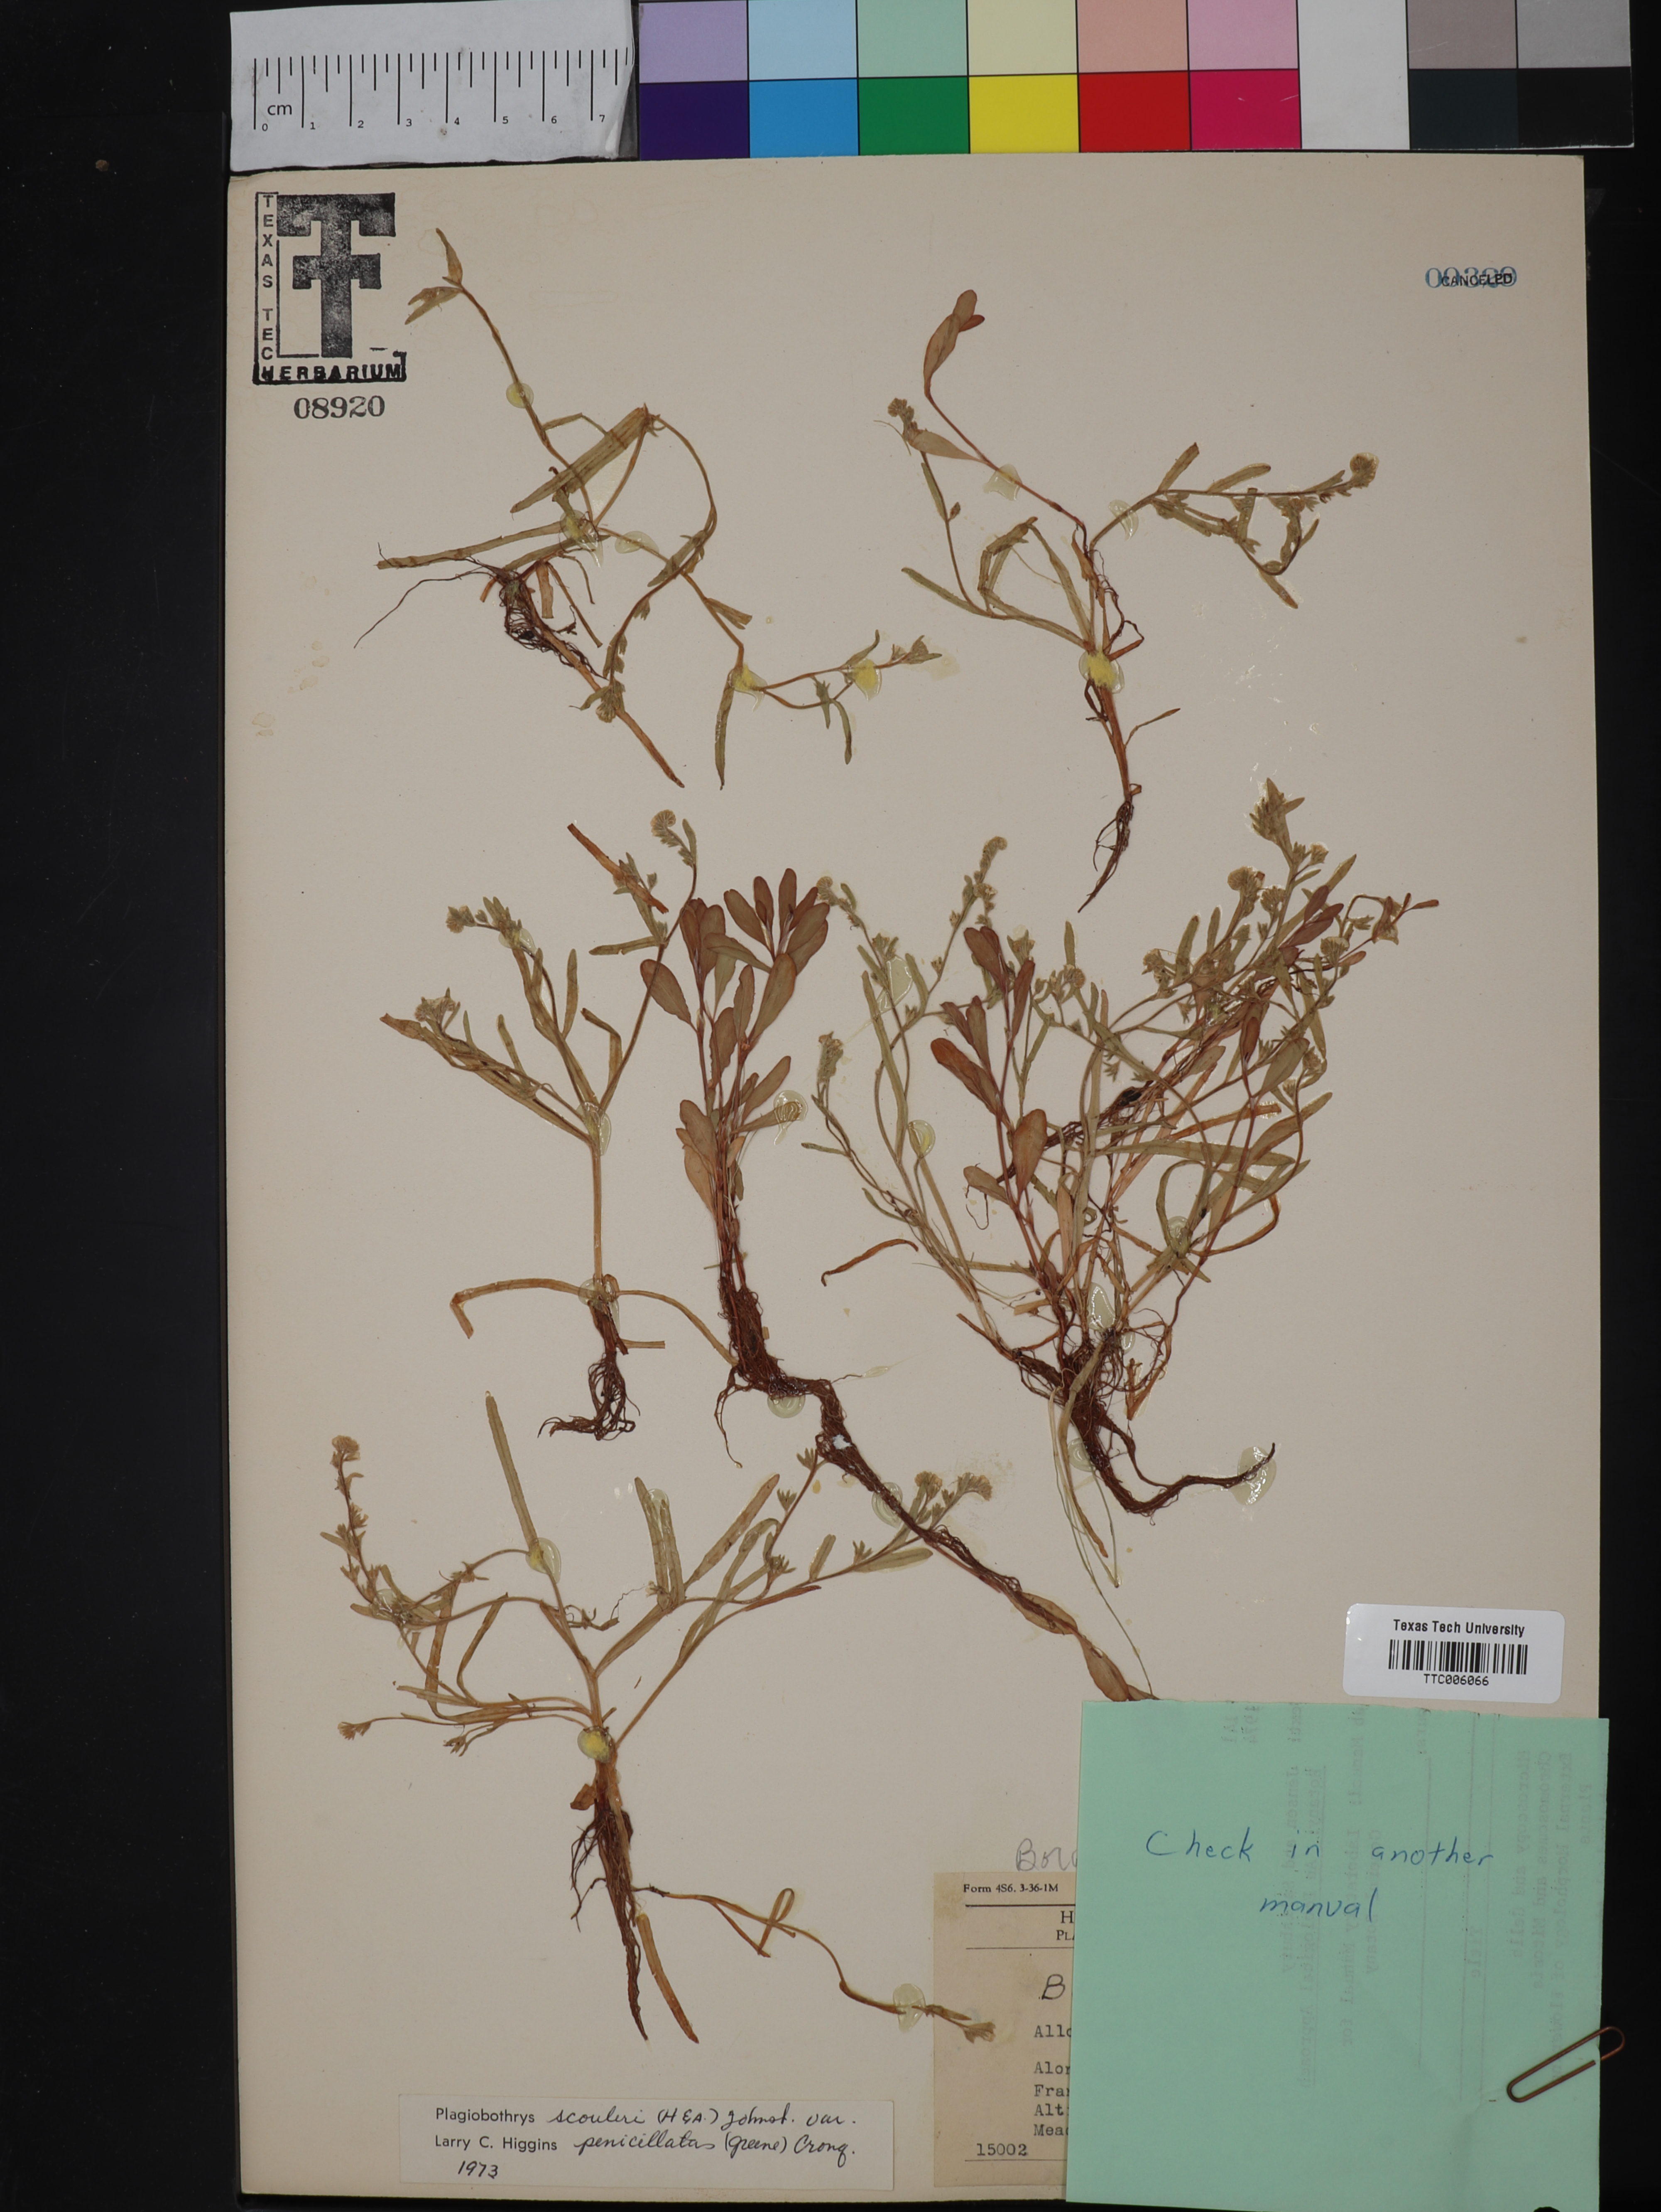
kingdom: Plantae
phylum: Tracheophyta
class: Magnoliopsida
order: Boraginales
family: Boraginaceae
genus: Plagiobothrys
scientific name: Plagiobothrys scouleri
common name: White forget-me-not
